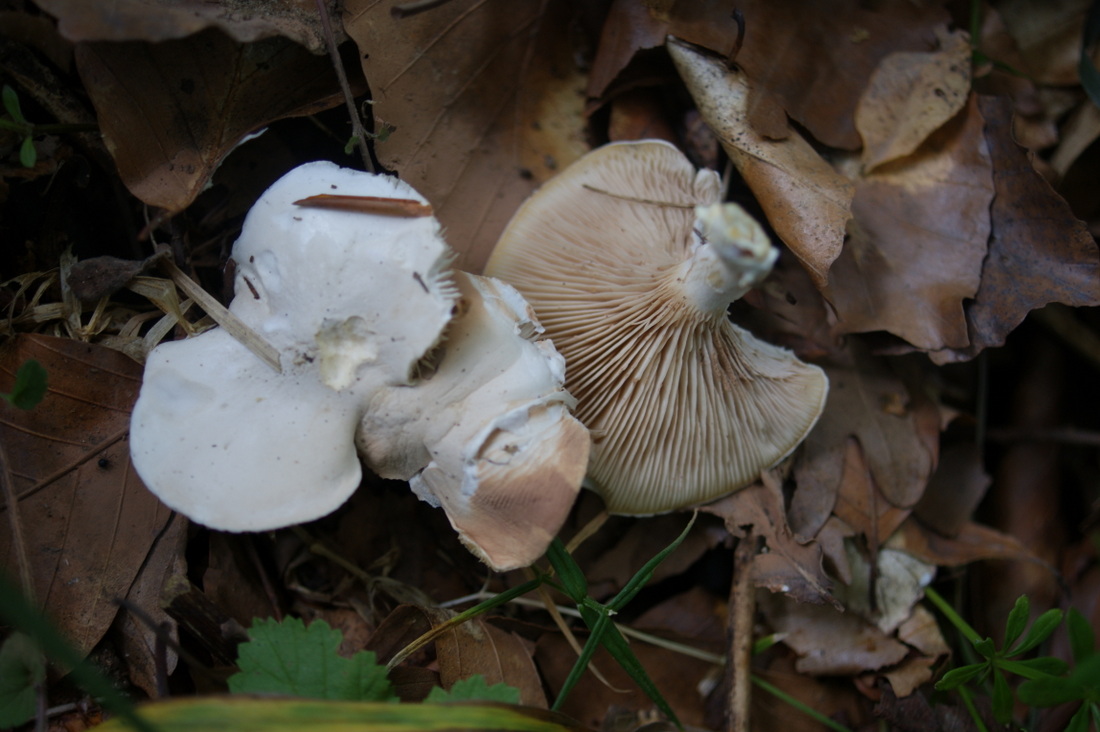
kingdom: Fungi
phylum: Basidiomycota
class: Agaricomycetes
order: Agaricales
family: Entolomataceae
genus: Clitopilus
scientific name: Clitopilus prunulus
